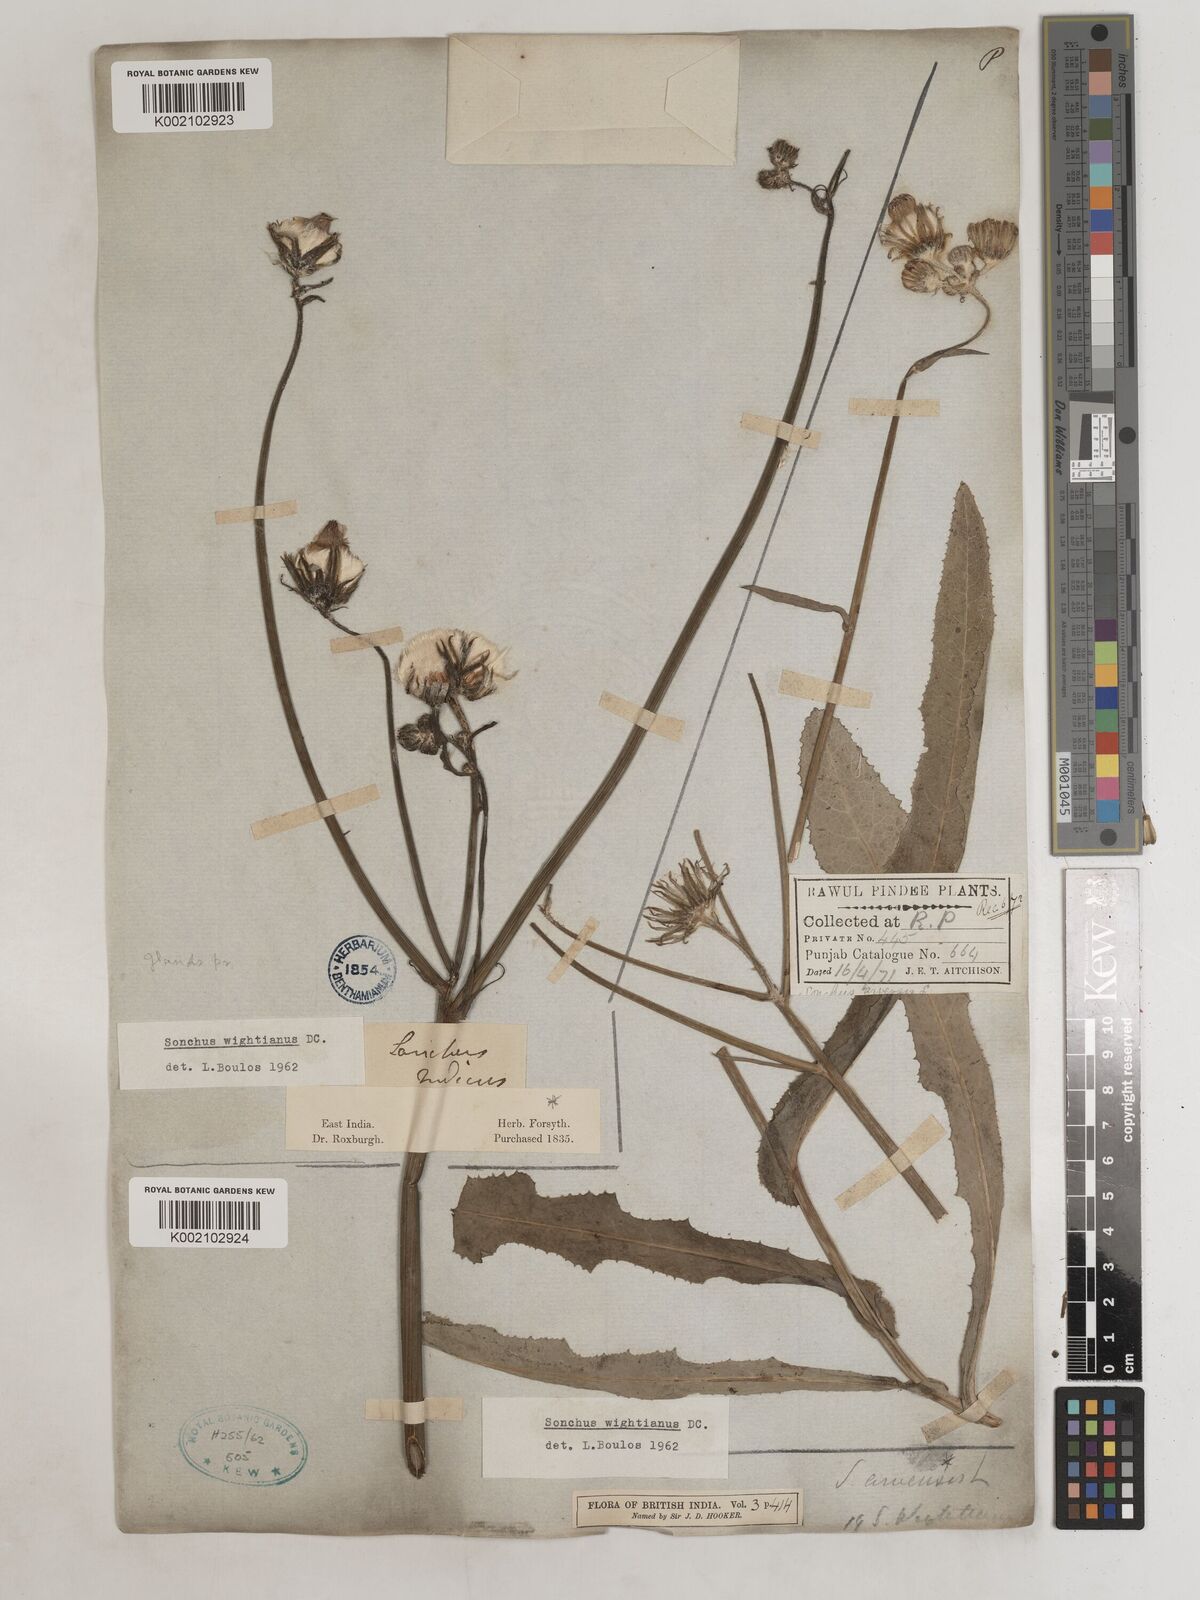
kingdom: Plantae
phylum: Tracheophyta
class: Magnoliopsida
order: Asterales
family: Asteraceae
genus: Sonchus
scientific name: Sonchus arvensis
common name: Perennial sow-thistle
